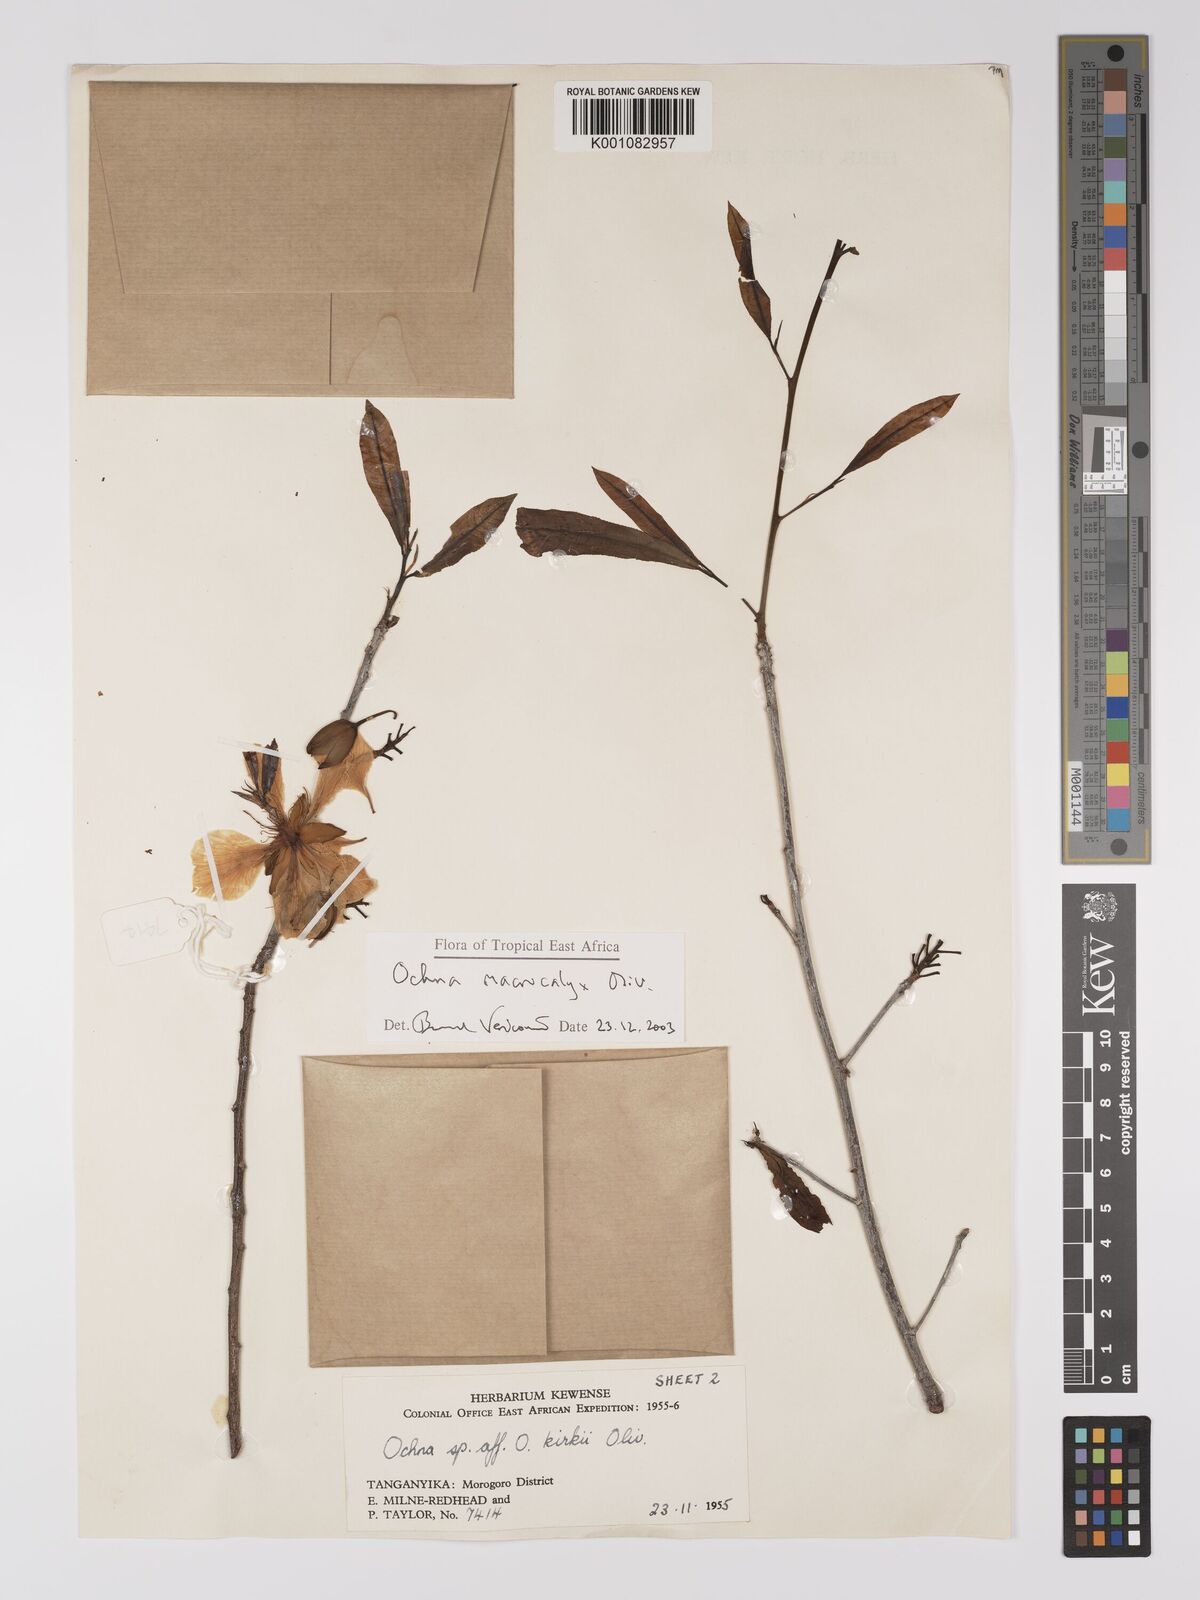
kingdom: Plantae
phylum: Tracheophyta
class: Magnoliopsida
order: Malpighiales
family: Ochnaceae
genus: Ochna
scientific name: Ochna macrocalyx
